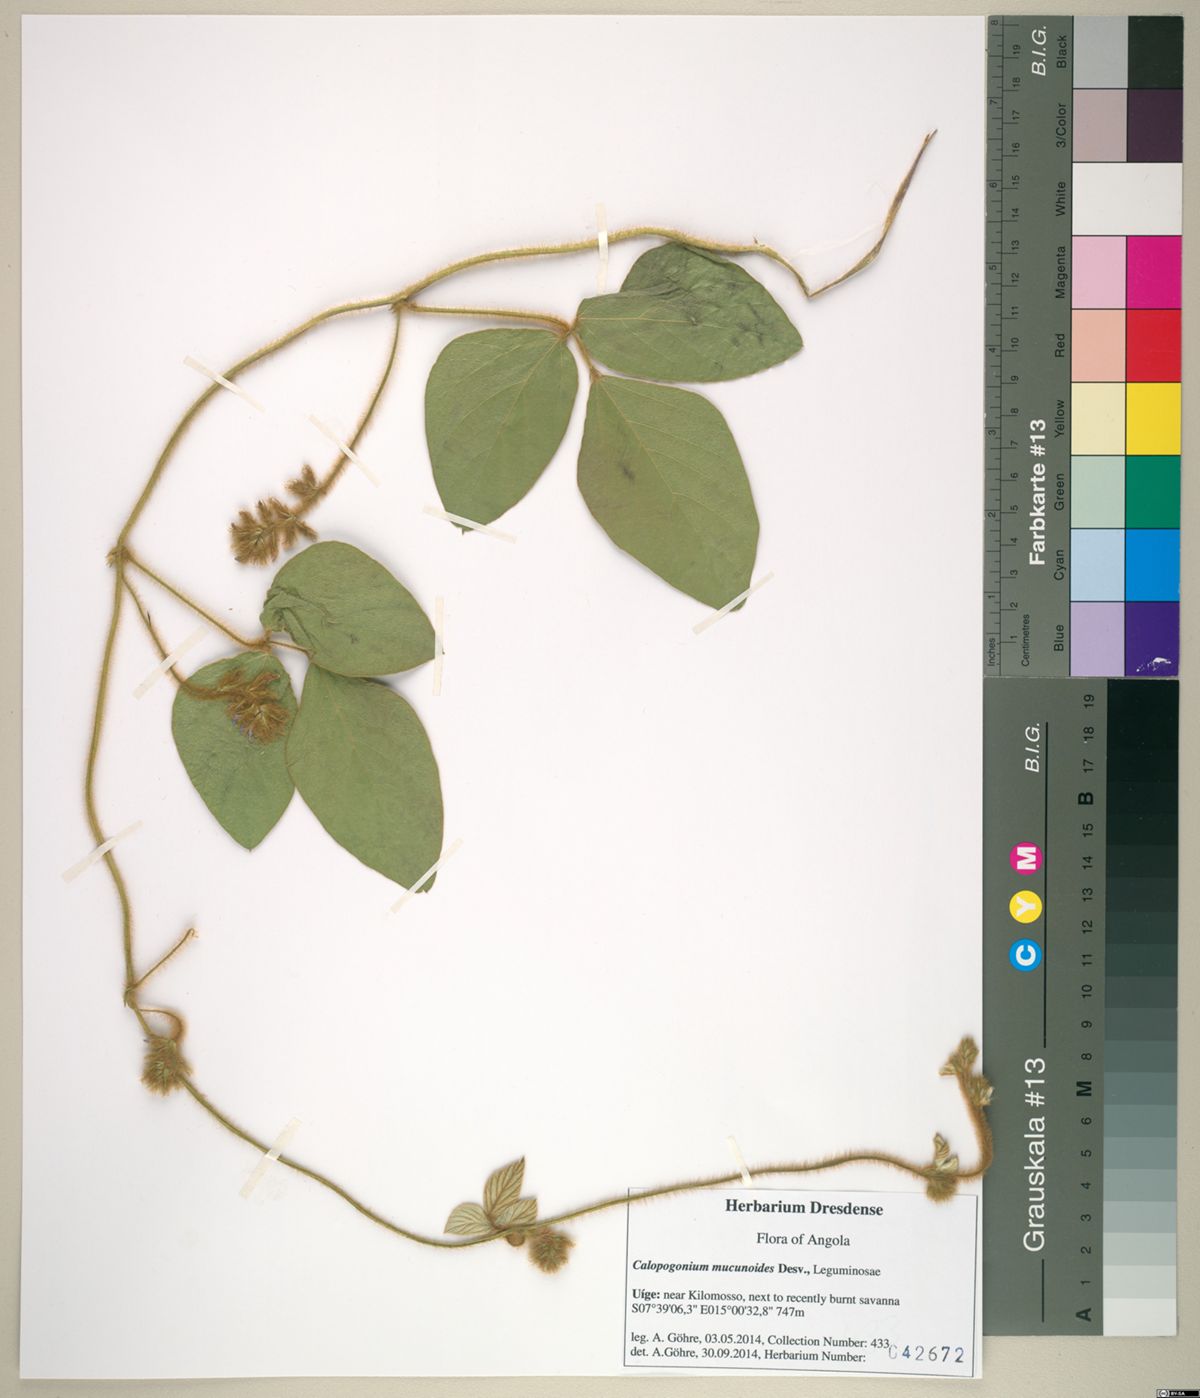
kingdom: Plantae
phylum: Tracheophyta
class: Magnoliopsida
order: Fabales
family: Fabaceae
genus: Calopogonium
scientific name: Calopogonium mucunoides
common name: Calopo
